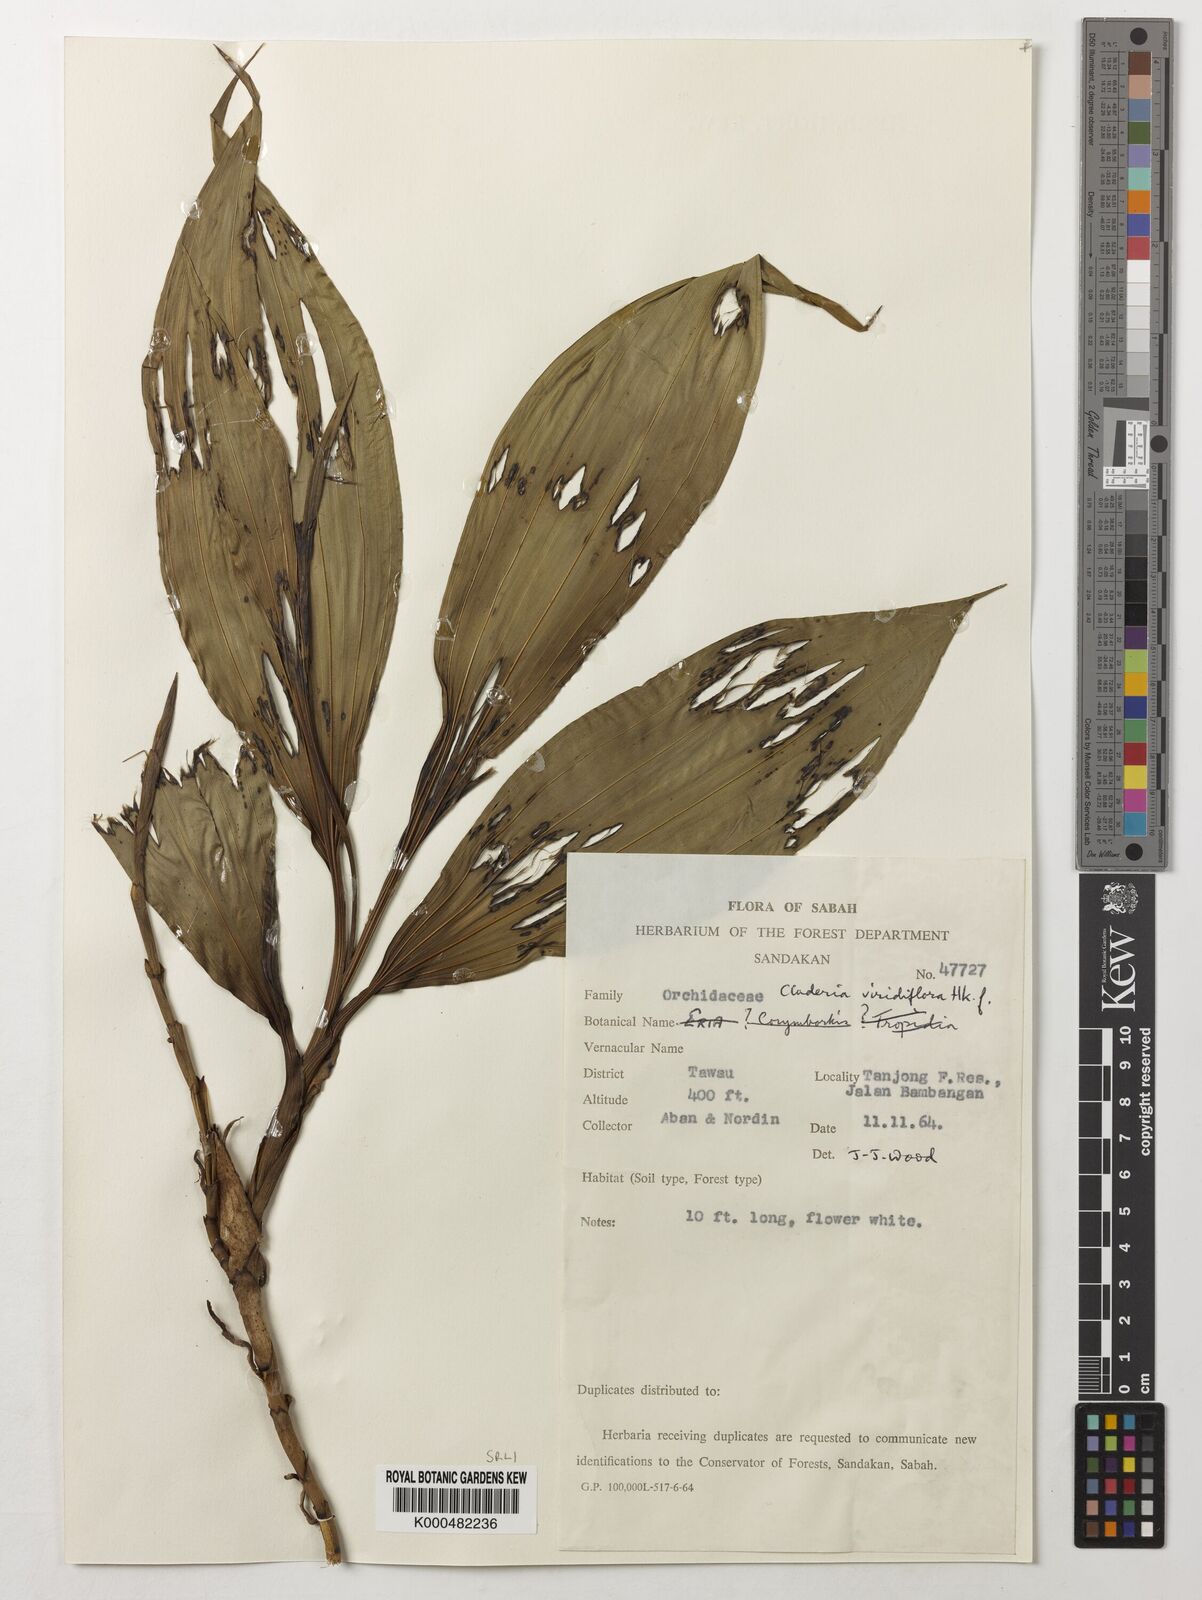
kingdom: Plantae
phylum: Tracheophyta
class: Liliopsida
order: Asparagales
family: Orchidaceae
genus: Claderia
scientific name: Claderia
